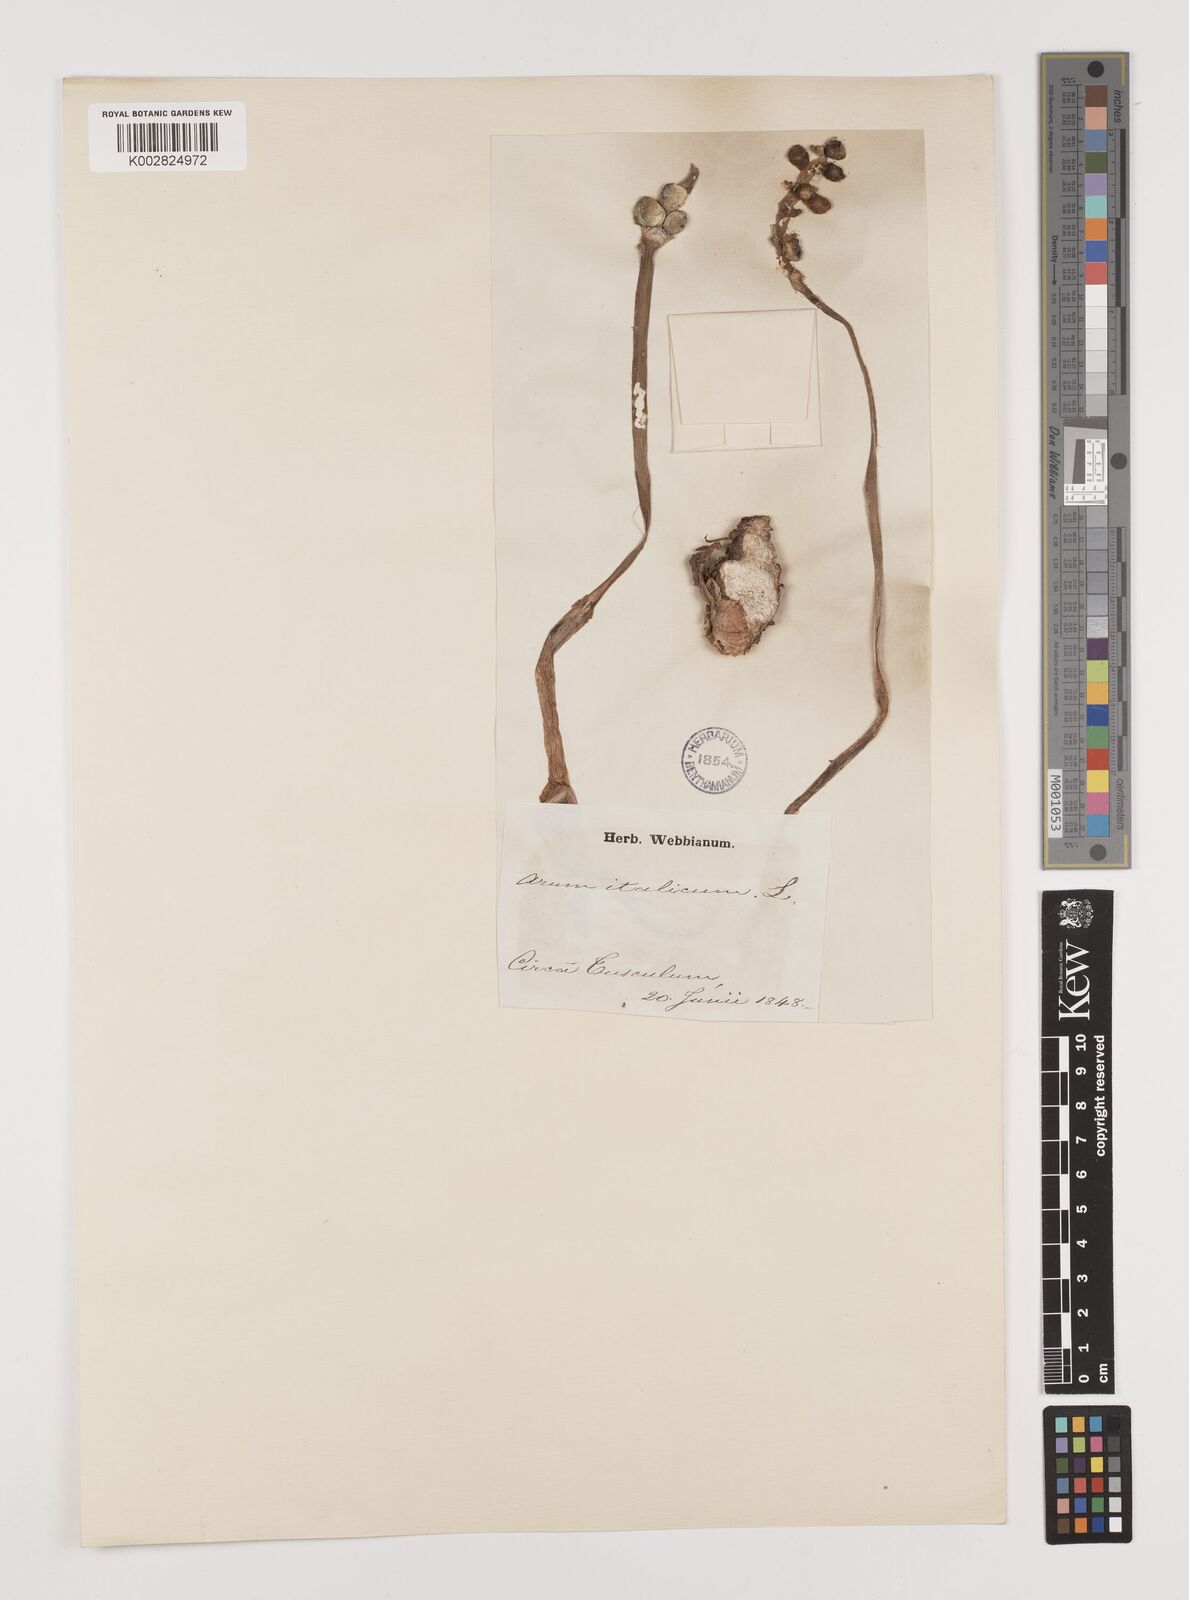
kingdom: Plantae
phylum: Tracheophyta
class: Liliopsida
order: Alismatales
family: Araceae
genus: Arum
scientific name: Arum italicum
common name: Italian lords-and-ladies
